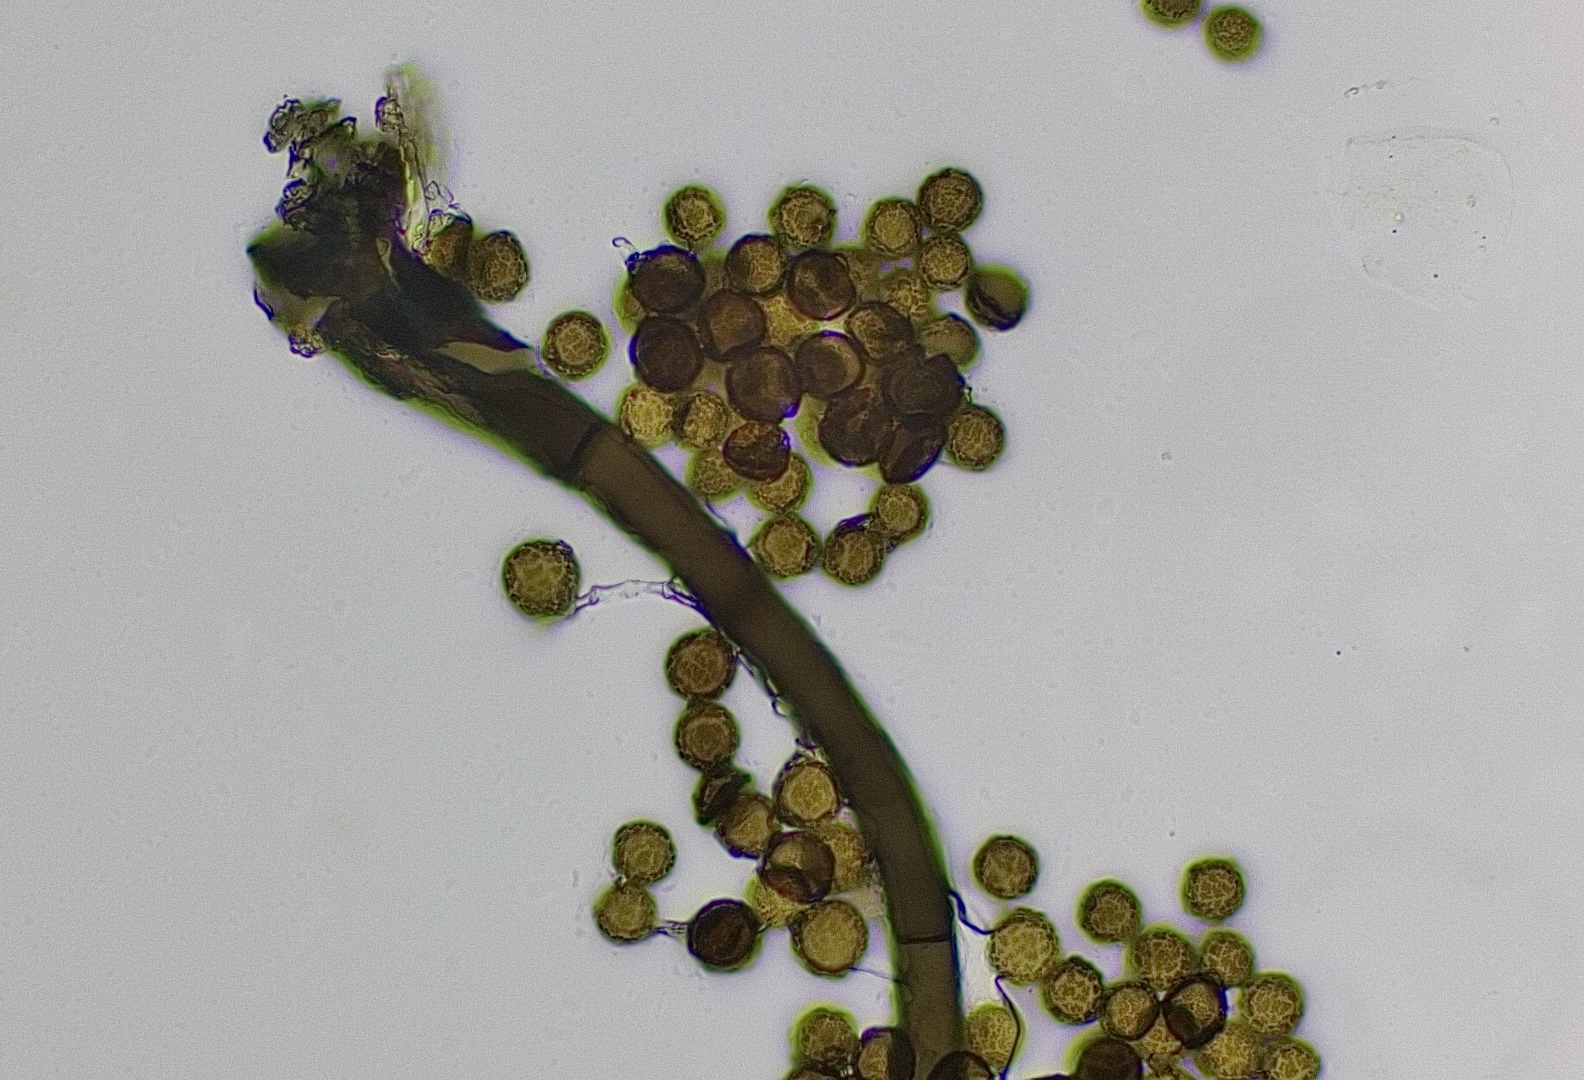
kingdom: Fungi
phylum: Ascomycota
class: Dothideomycetes
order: Pleosporales
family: Periconiaceae
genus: Periconia
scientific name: Periconia
